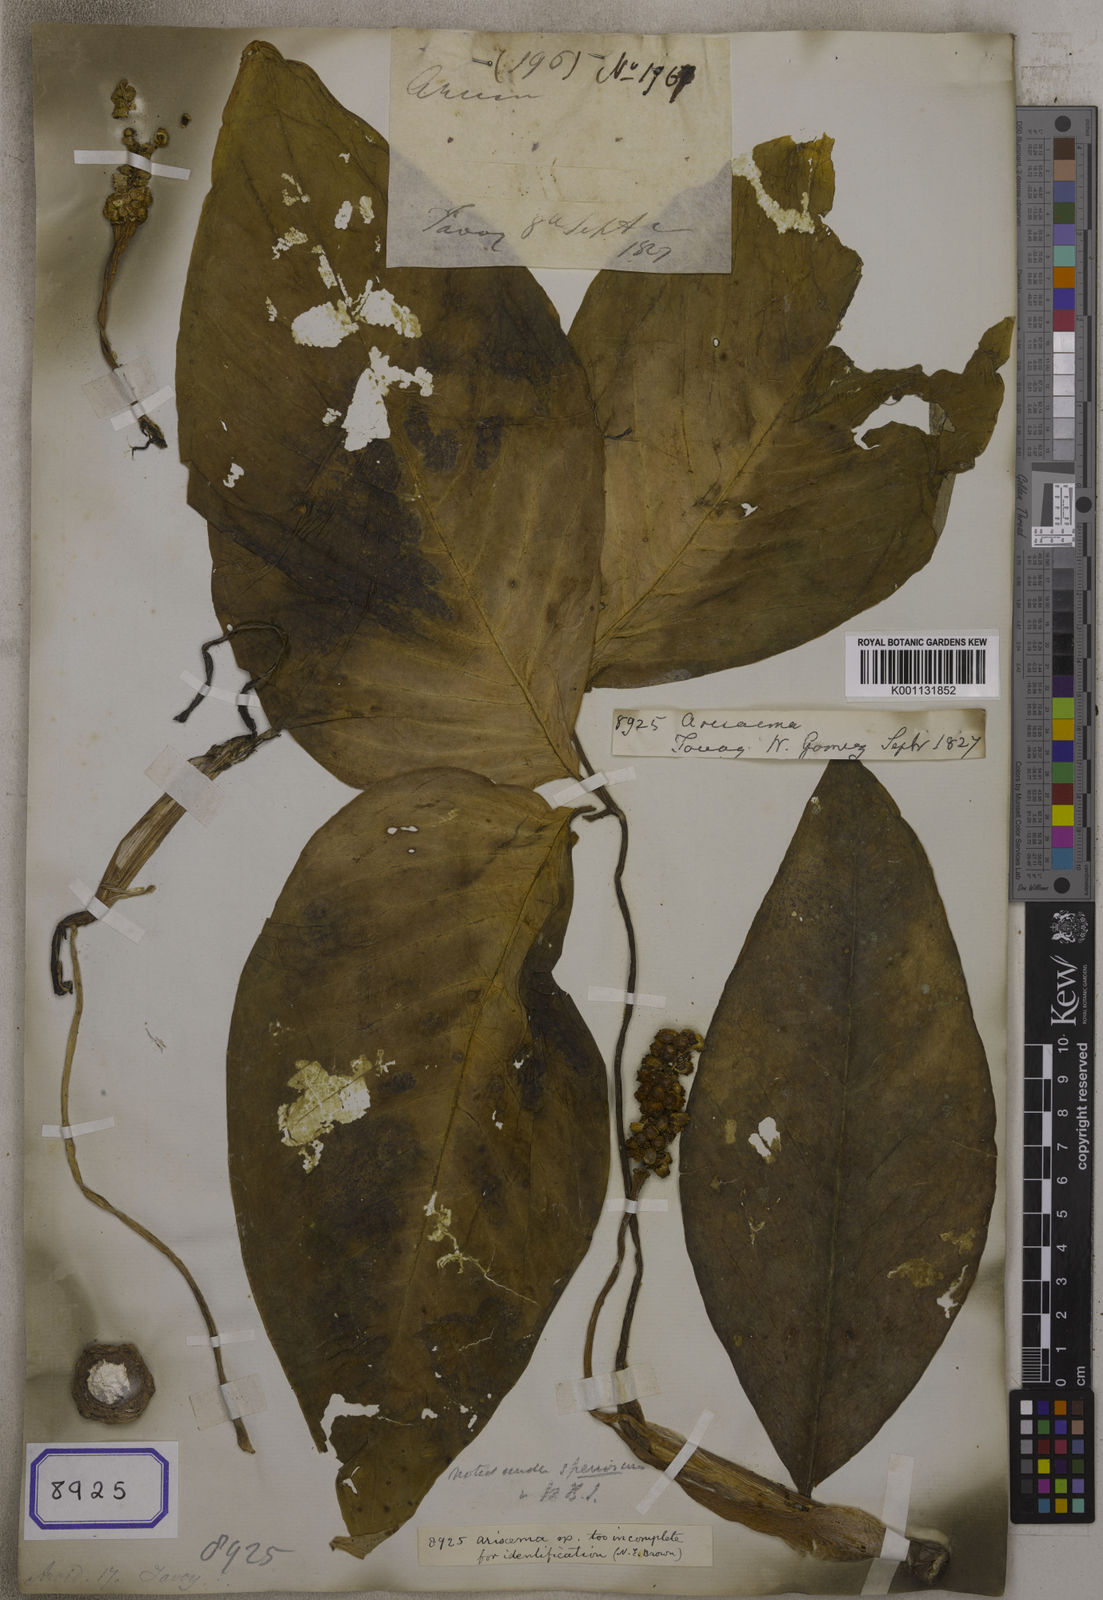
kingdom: Plantae
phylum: Tracheophyta
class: Liliopsida
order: Alismatales
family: Araceae
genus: Arisaema
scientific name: Arisaema
